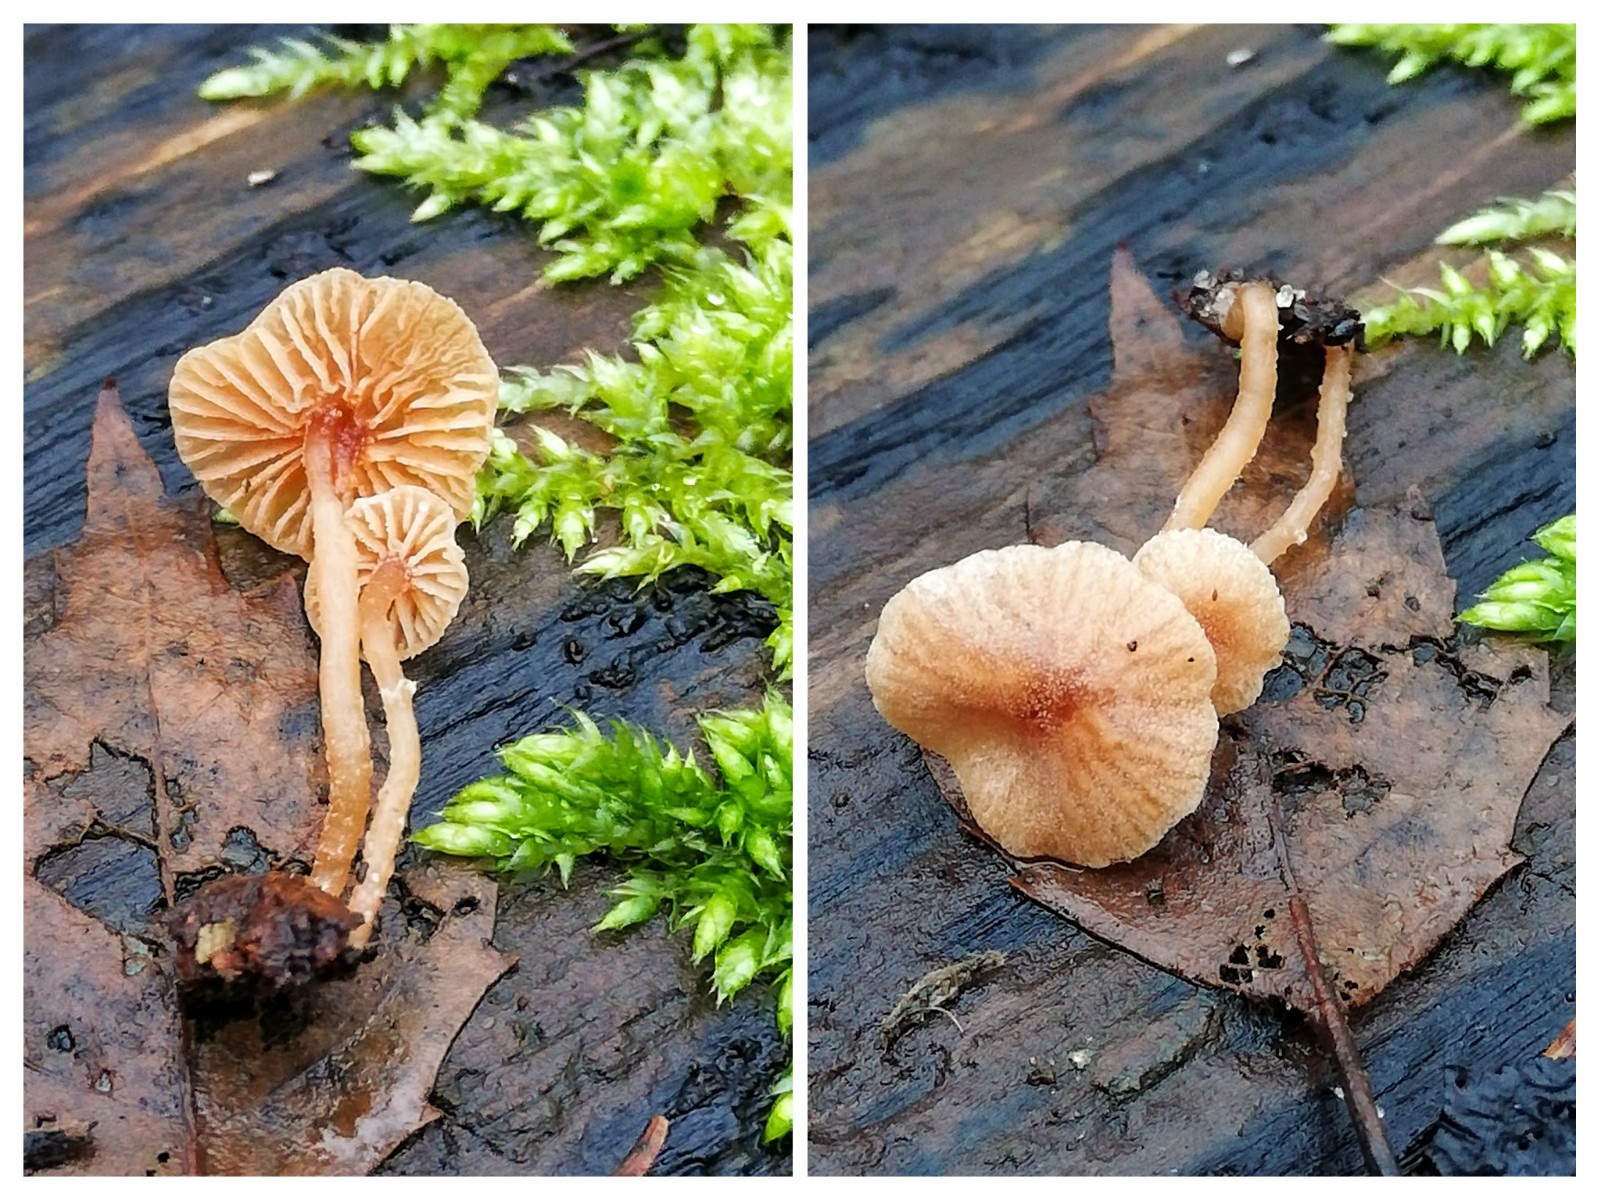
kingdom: Fungi
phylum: Basidiomycota
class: Agaricomycetes
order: Agaricales
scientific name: Agaricales
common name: champignonordenen
